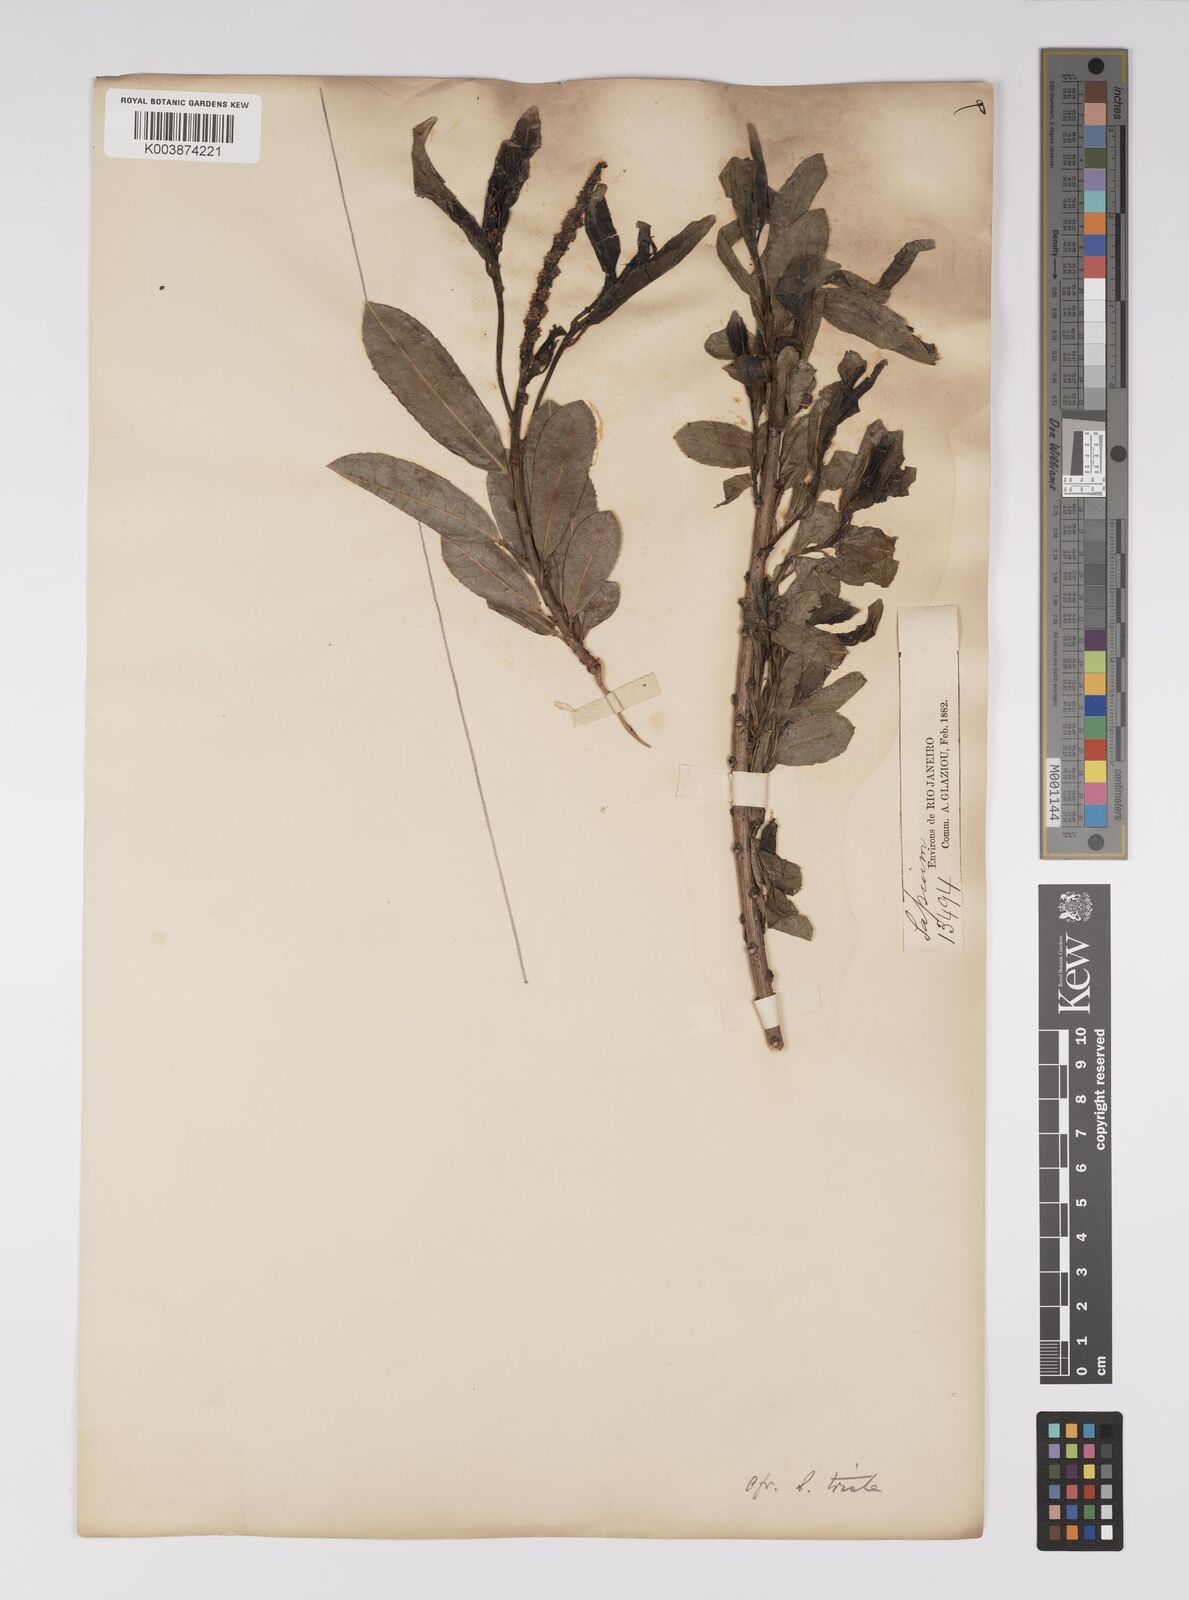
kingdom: Plantae
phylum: Tracheophyta
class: Magnoliopsida
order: Malpighiales
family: Euphorbiaceae
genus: Sapium
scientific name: Sapium
